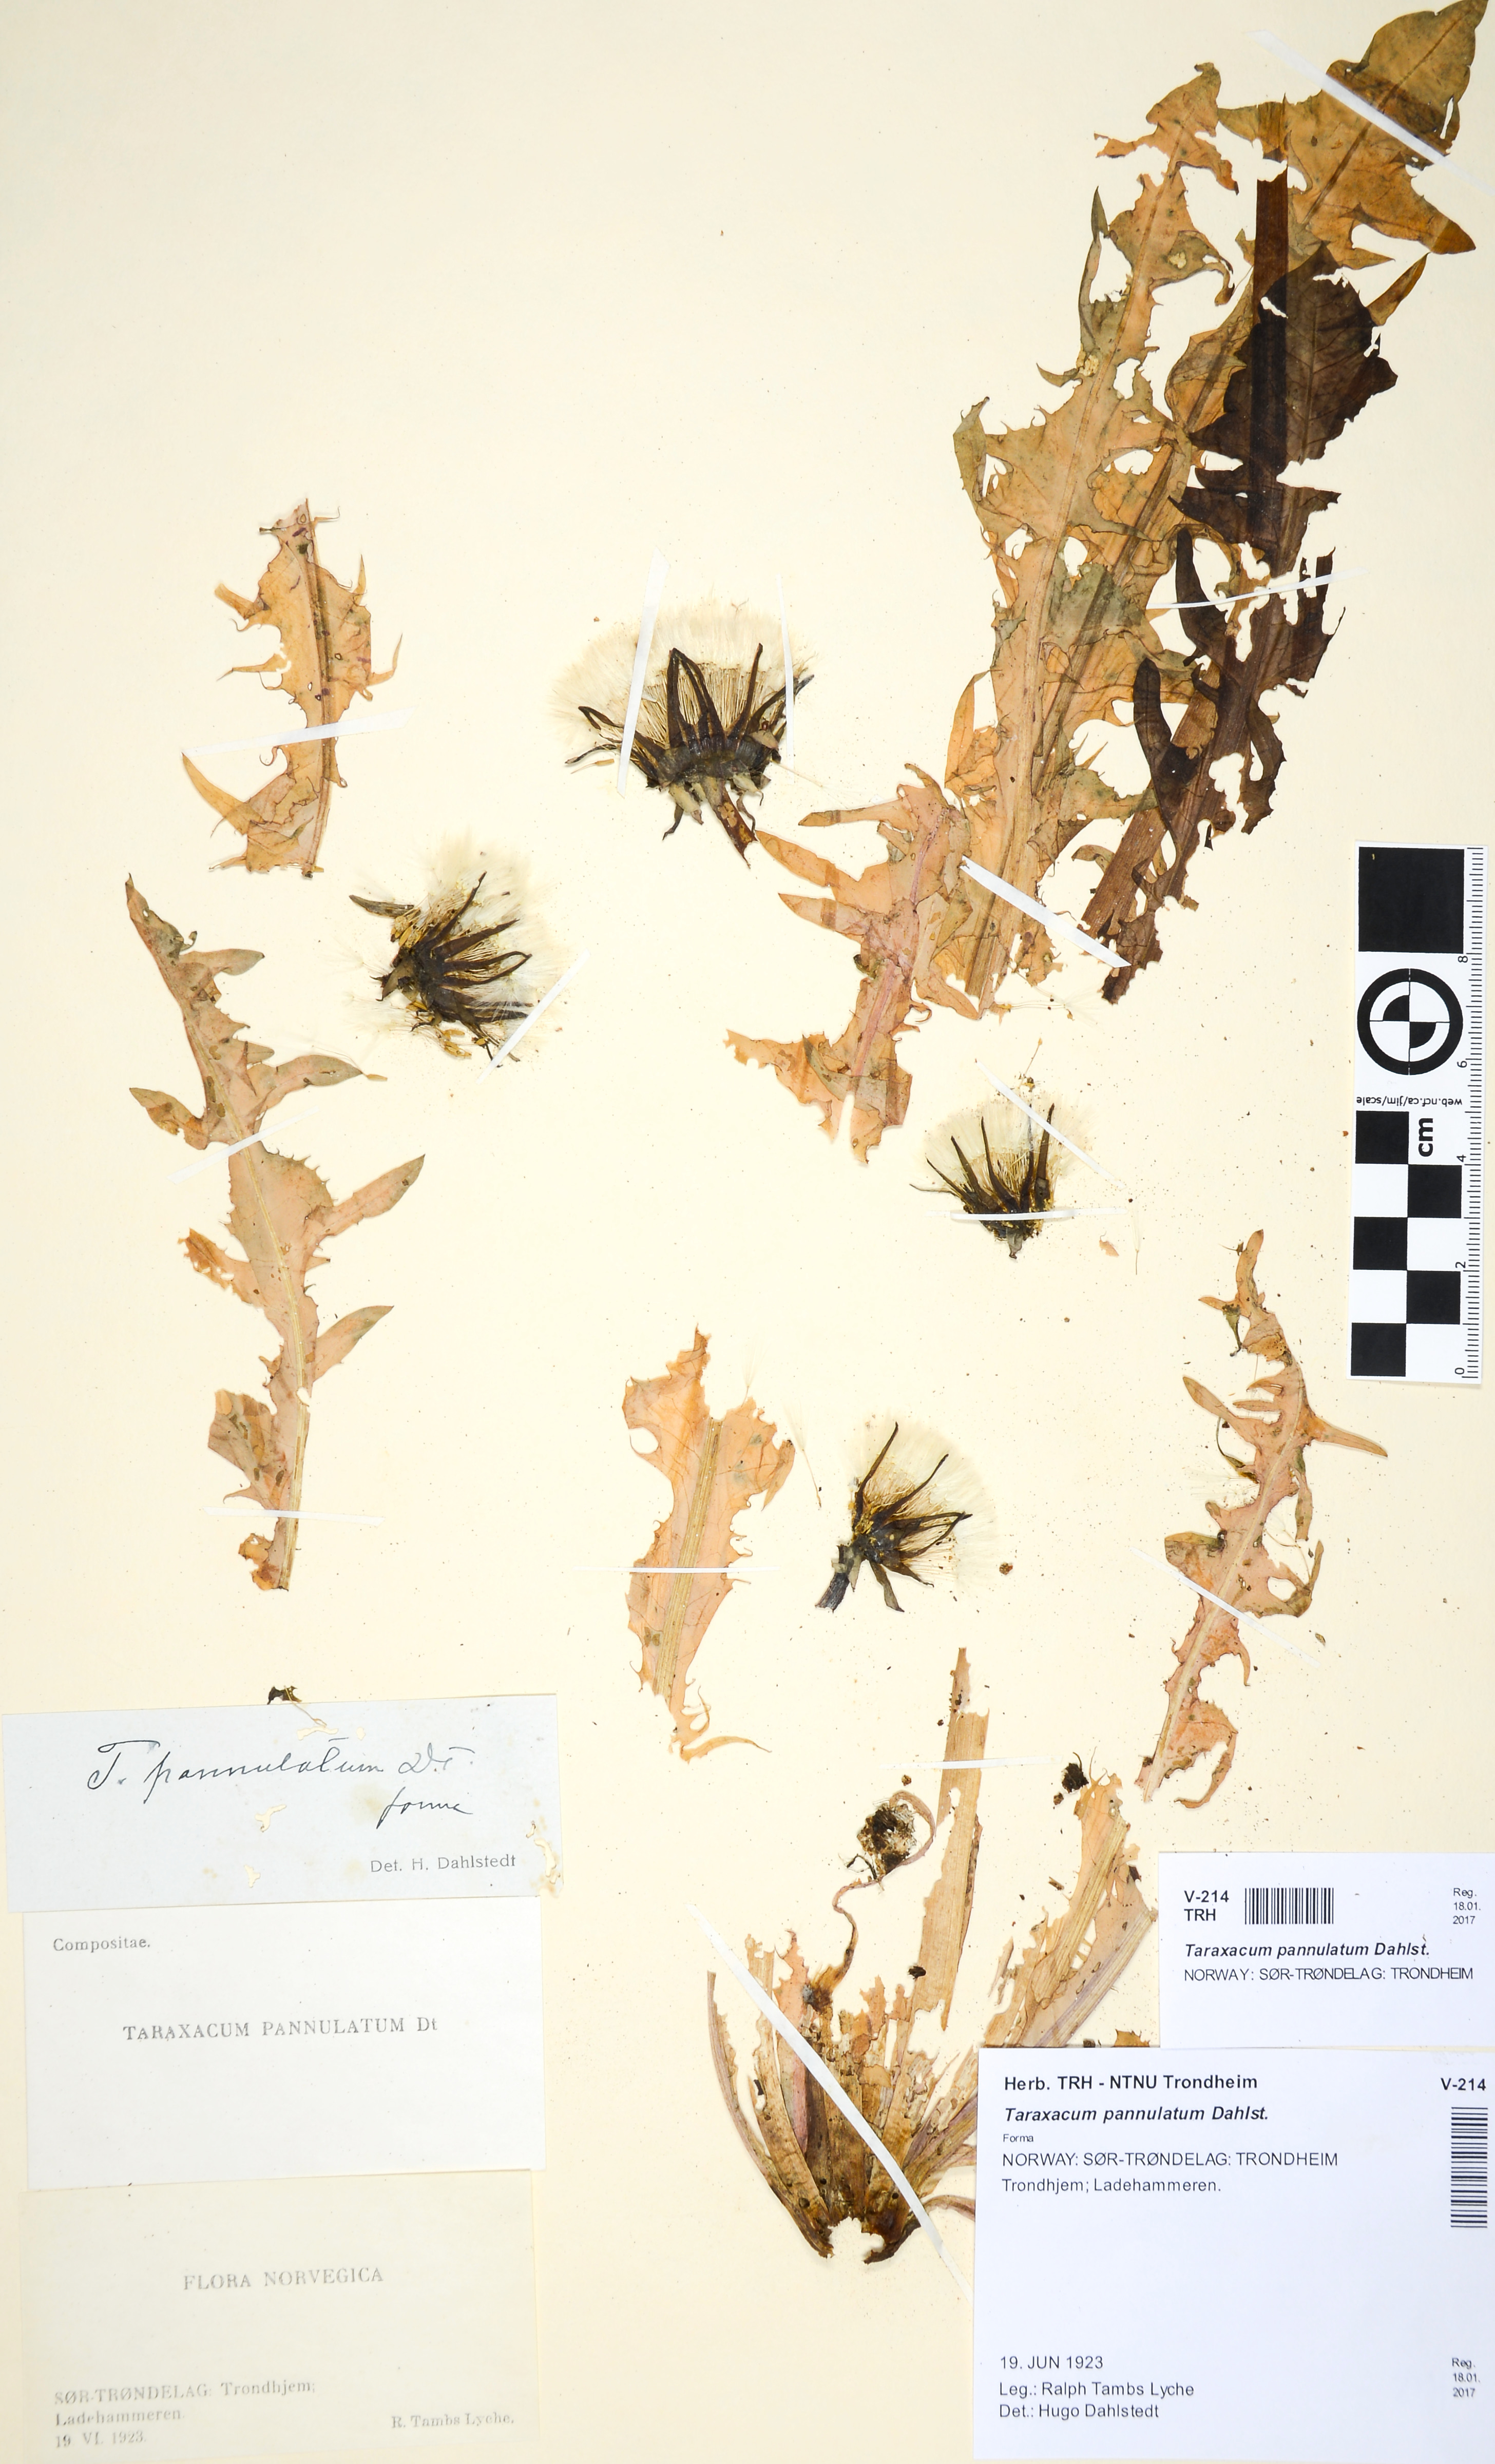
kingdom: Plantae
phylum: Tracheophyta
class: Magnoliopsida
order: Asterales
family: Asteraceae
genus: Taraxacum
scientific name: Taraxacum pannulatum
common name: Brown-ribbed dandelion
